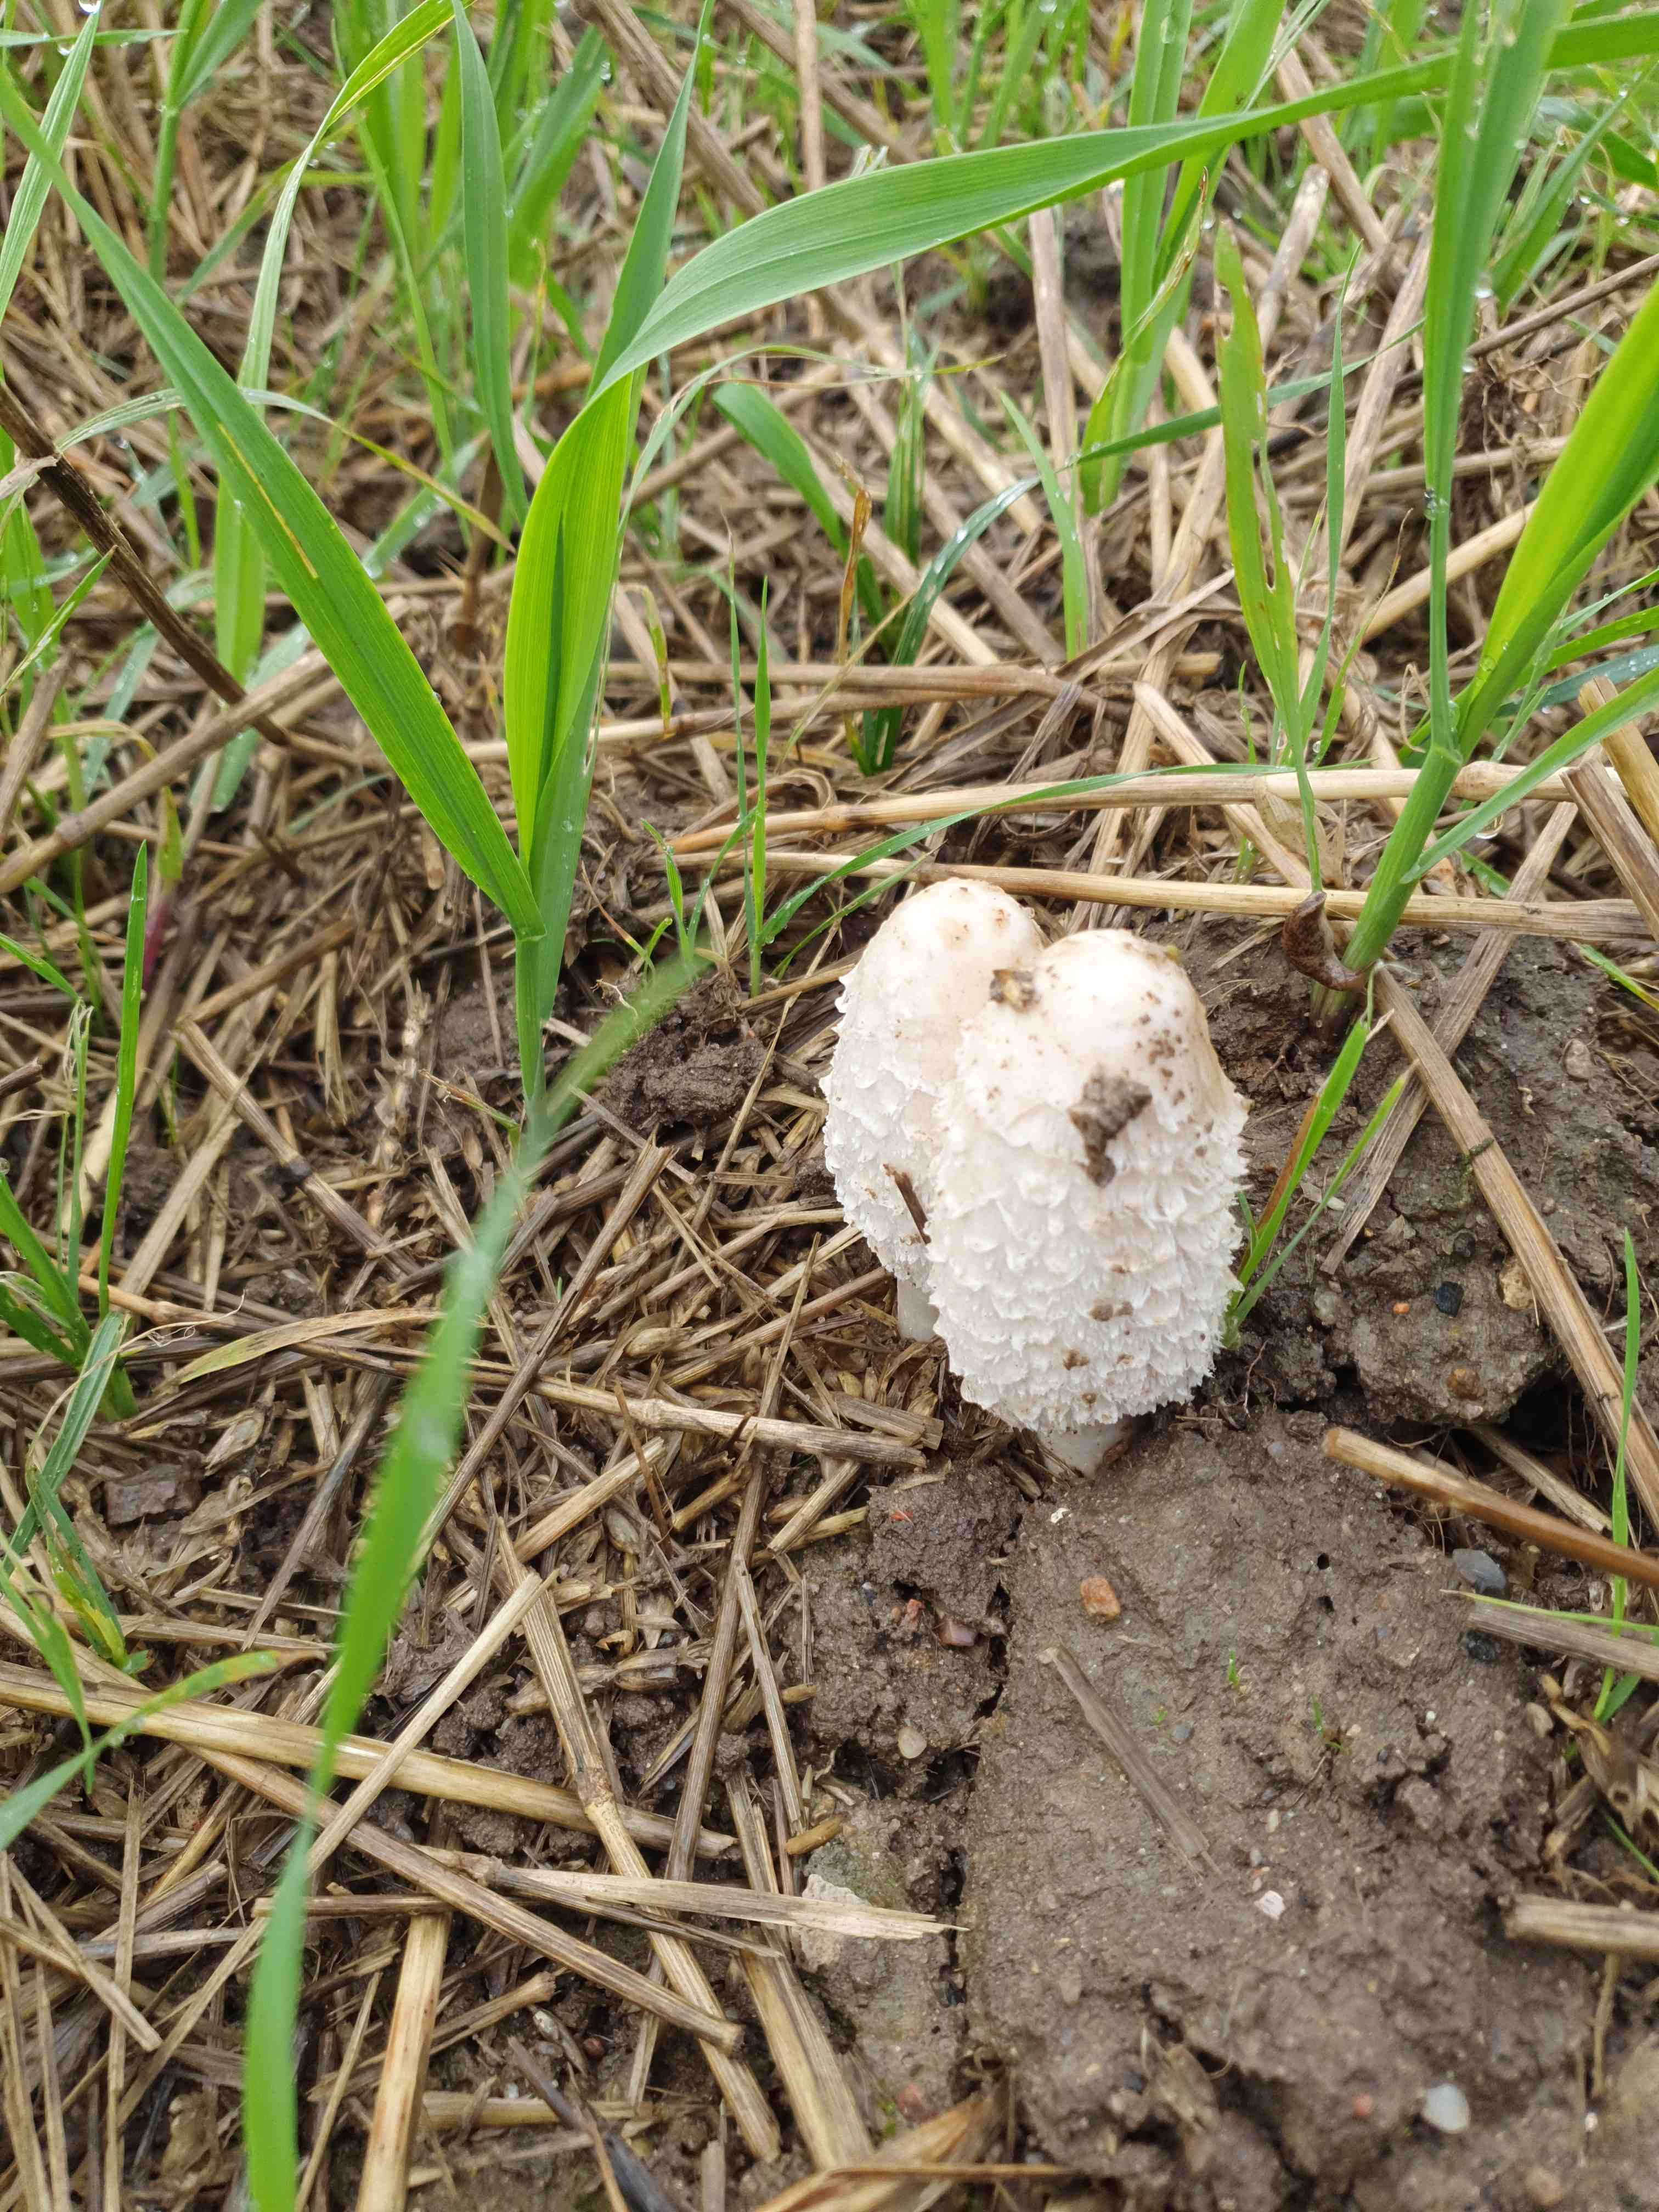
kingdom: Fungi
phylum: Basidiomycota
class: Agaricomycetes
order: Agaricales
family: Agaricaceae
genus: Coprinus
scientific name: Coprinus comatus
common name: stor parykhat
